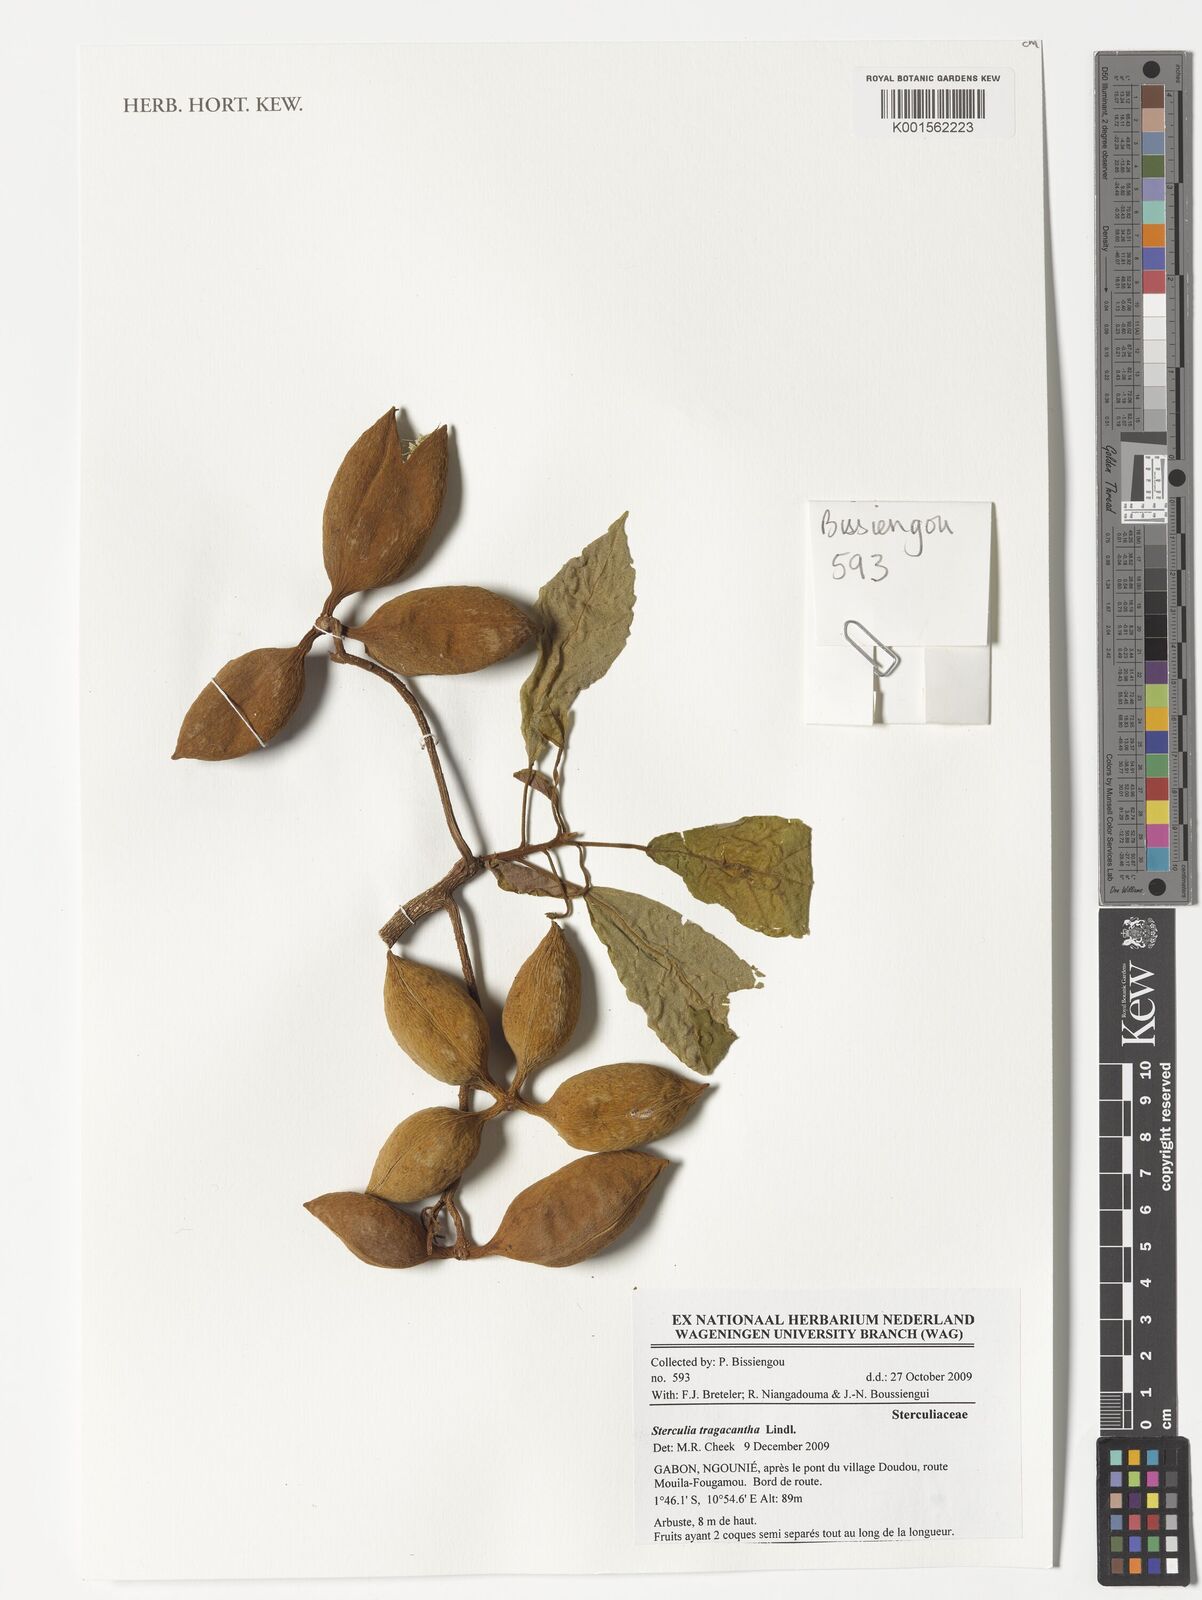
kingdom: Plantae
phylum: Tracheophyta
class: Magnoliopsida
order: Malvales
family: Malvaceae
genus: Sterculia
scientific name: Sterculia tragacantha
